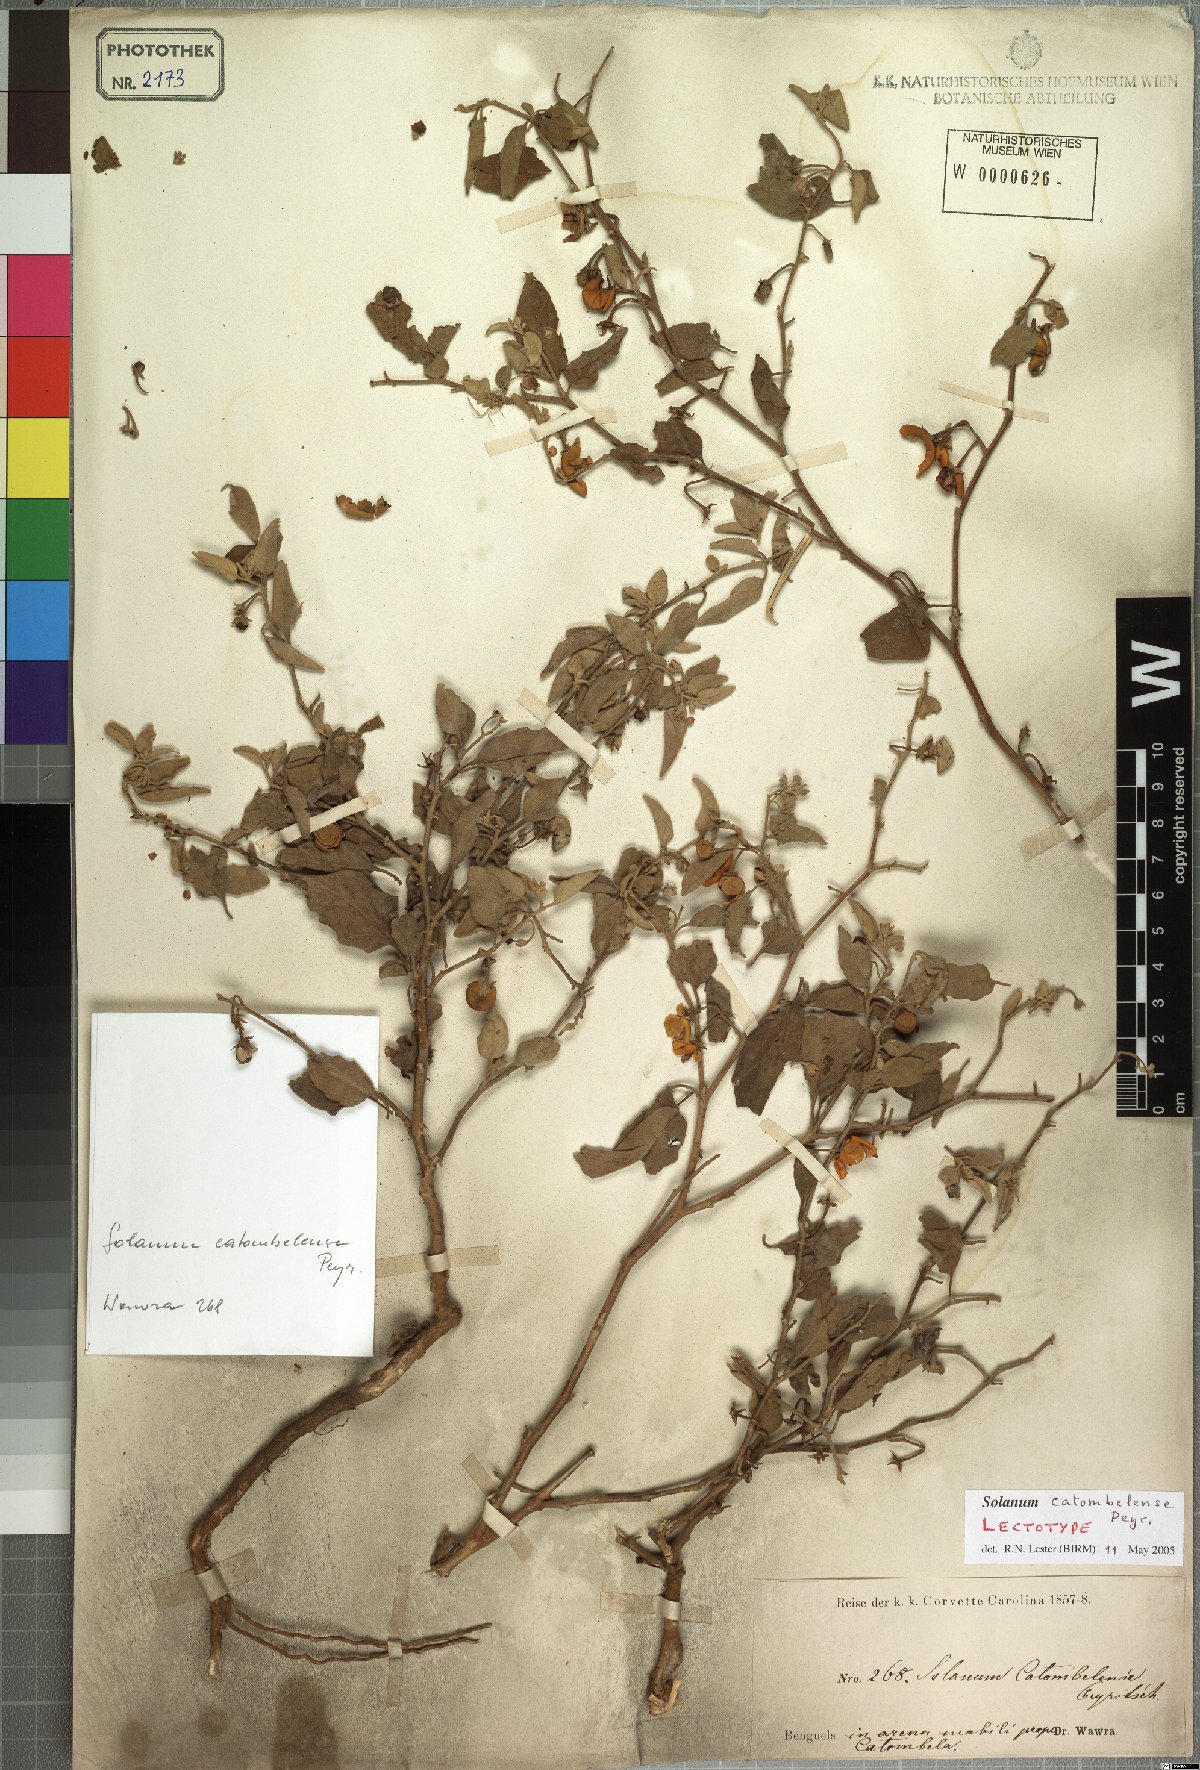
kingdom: Plantae
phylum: Tracheophyta
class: Magnoliopsida
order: Solanales
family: Solanaceae
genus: Solanum
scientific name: Solanum catombelense
